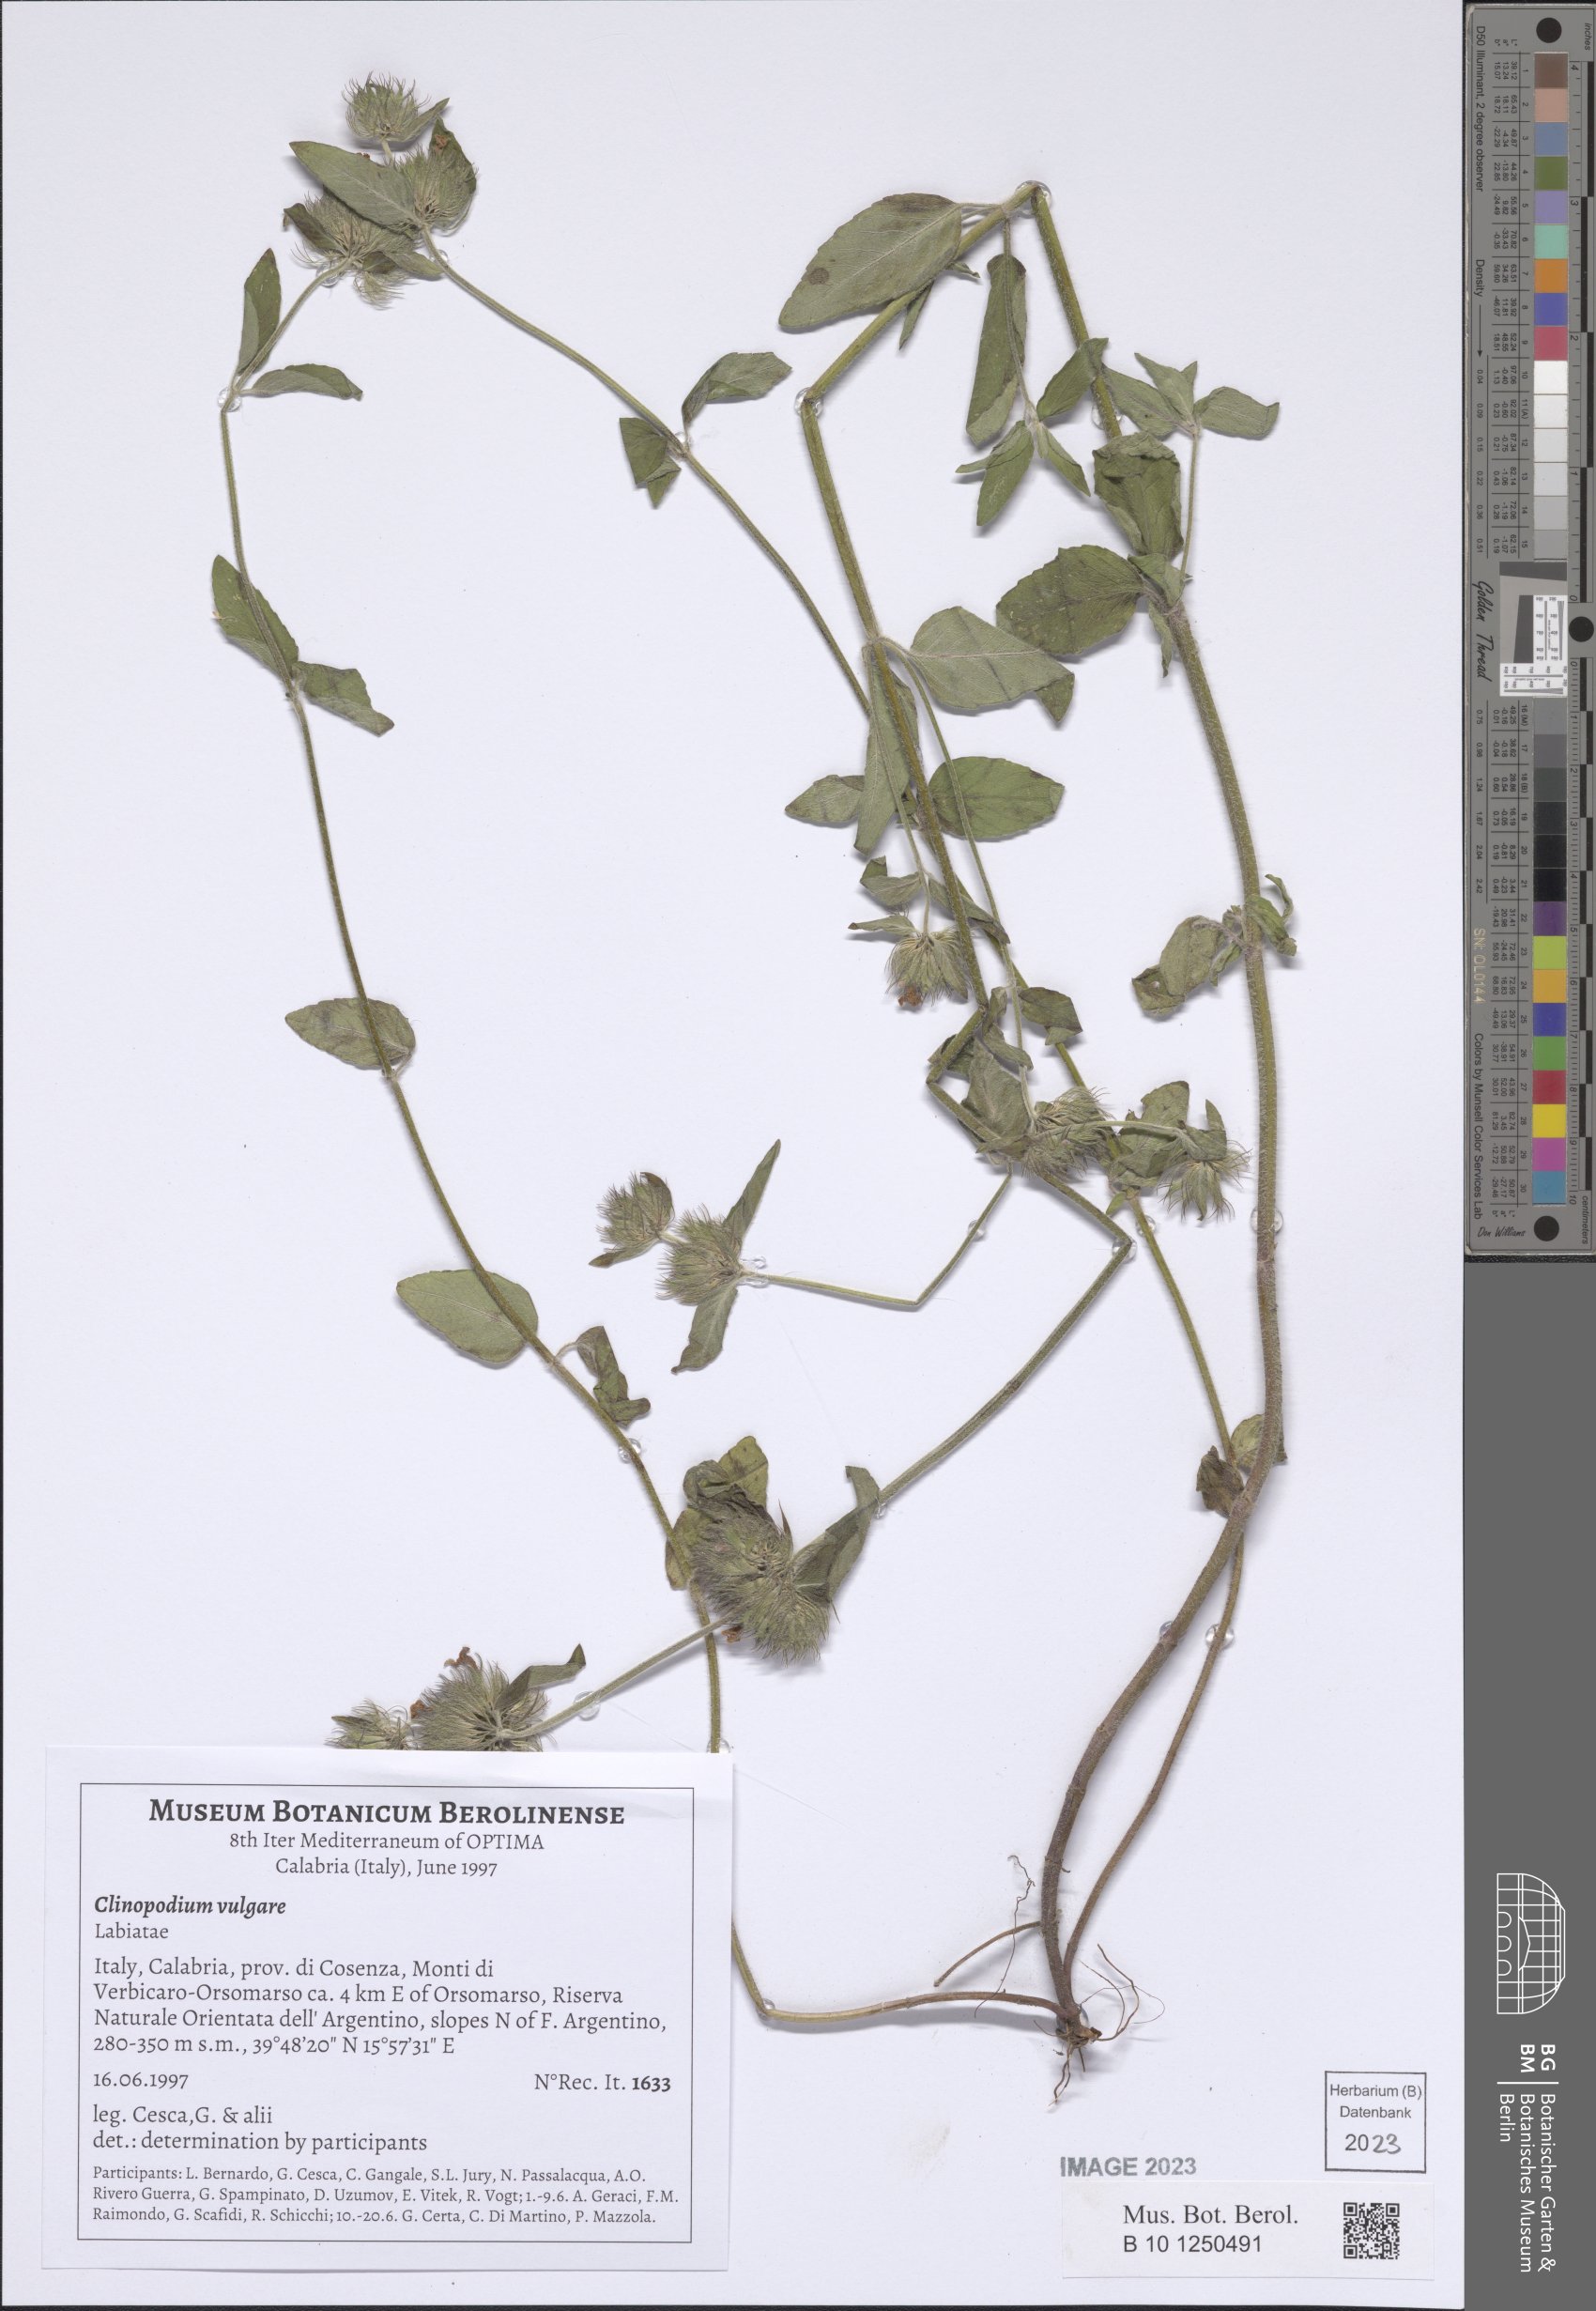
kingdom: Plantae
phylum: Tracheophyta
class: Magnoliopsida
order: Lamiales
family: Lamiaceae
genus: Clinopodium
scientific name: Clinopodium vulgare
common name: Wild basil
